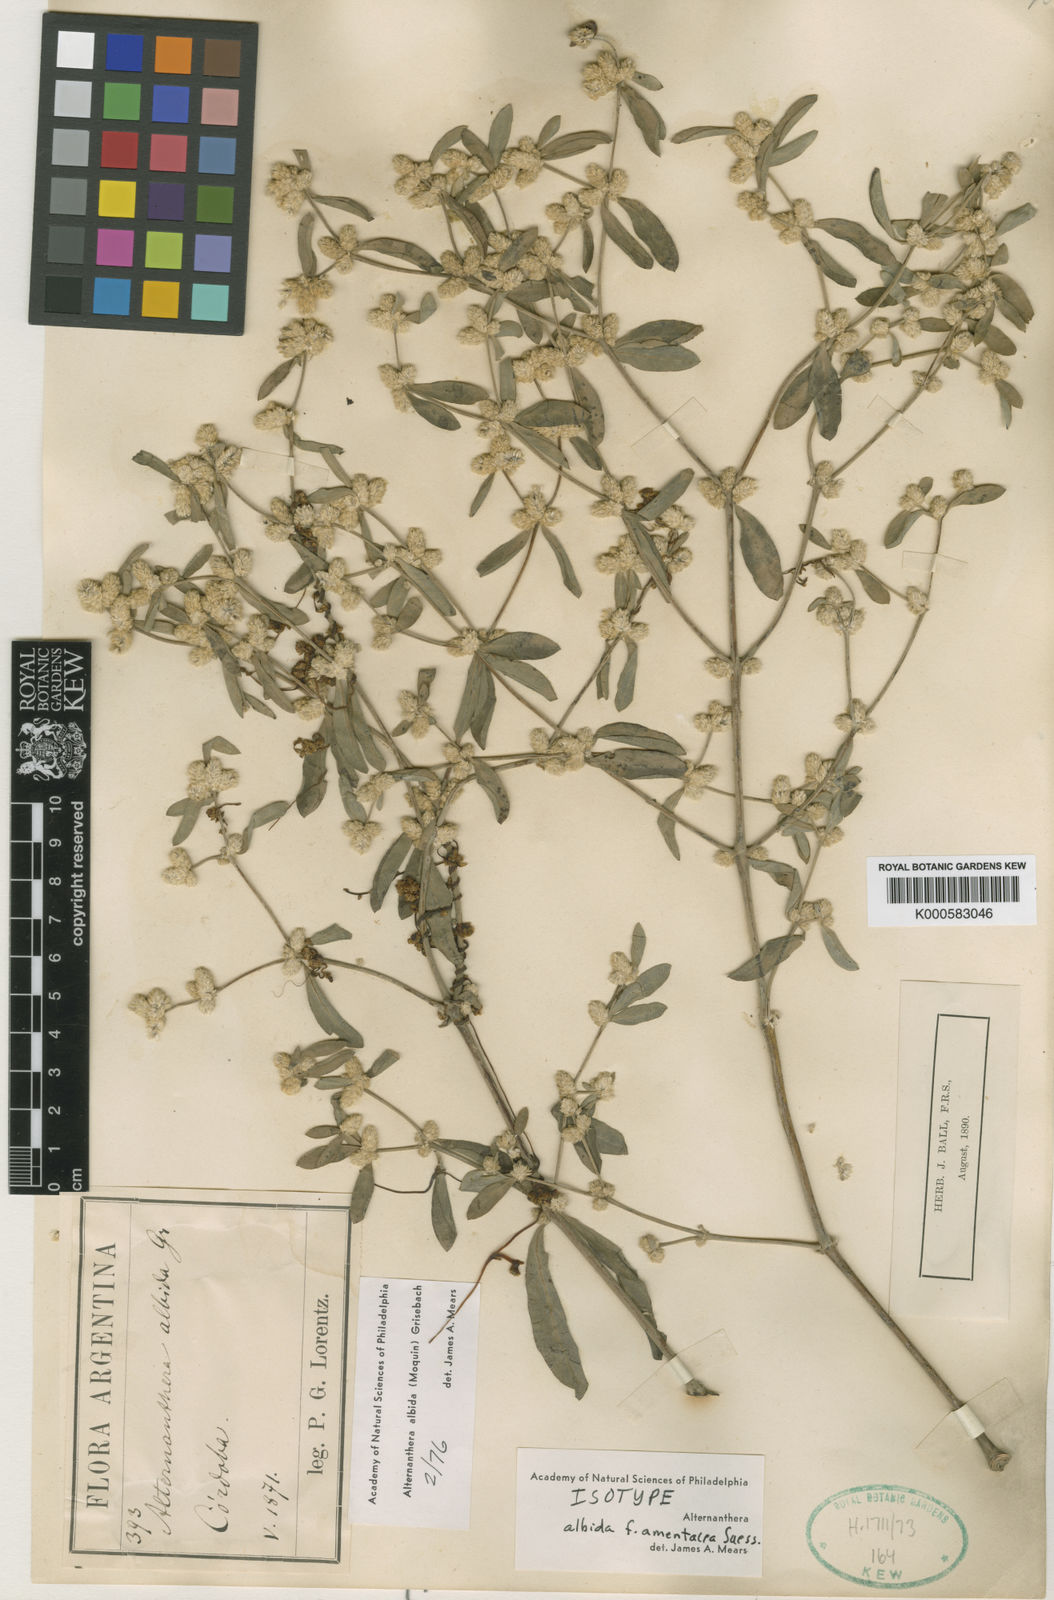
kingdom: Plantae
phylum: Tracheophyta
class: Magnoliopsida
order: Caryophyllales
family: Amaranthaceae
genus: Alternanthera
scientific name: Alternanthera albida
